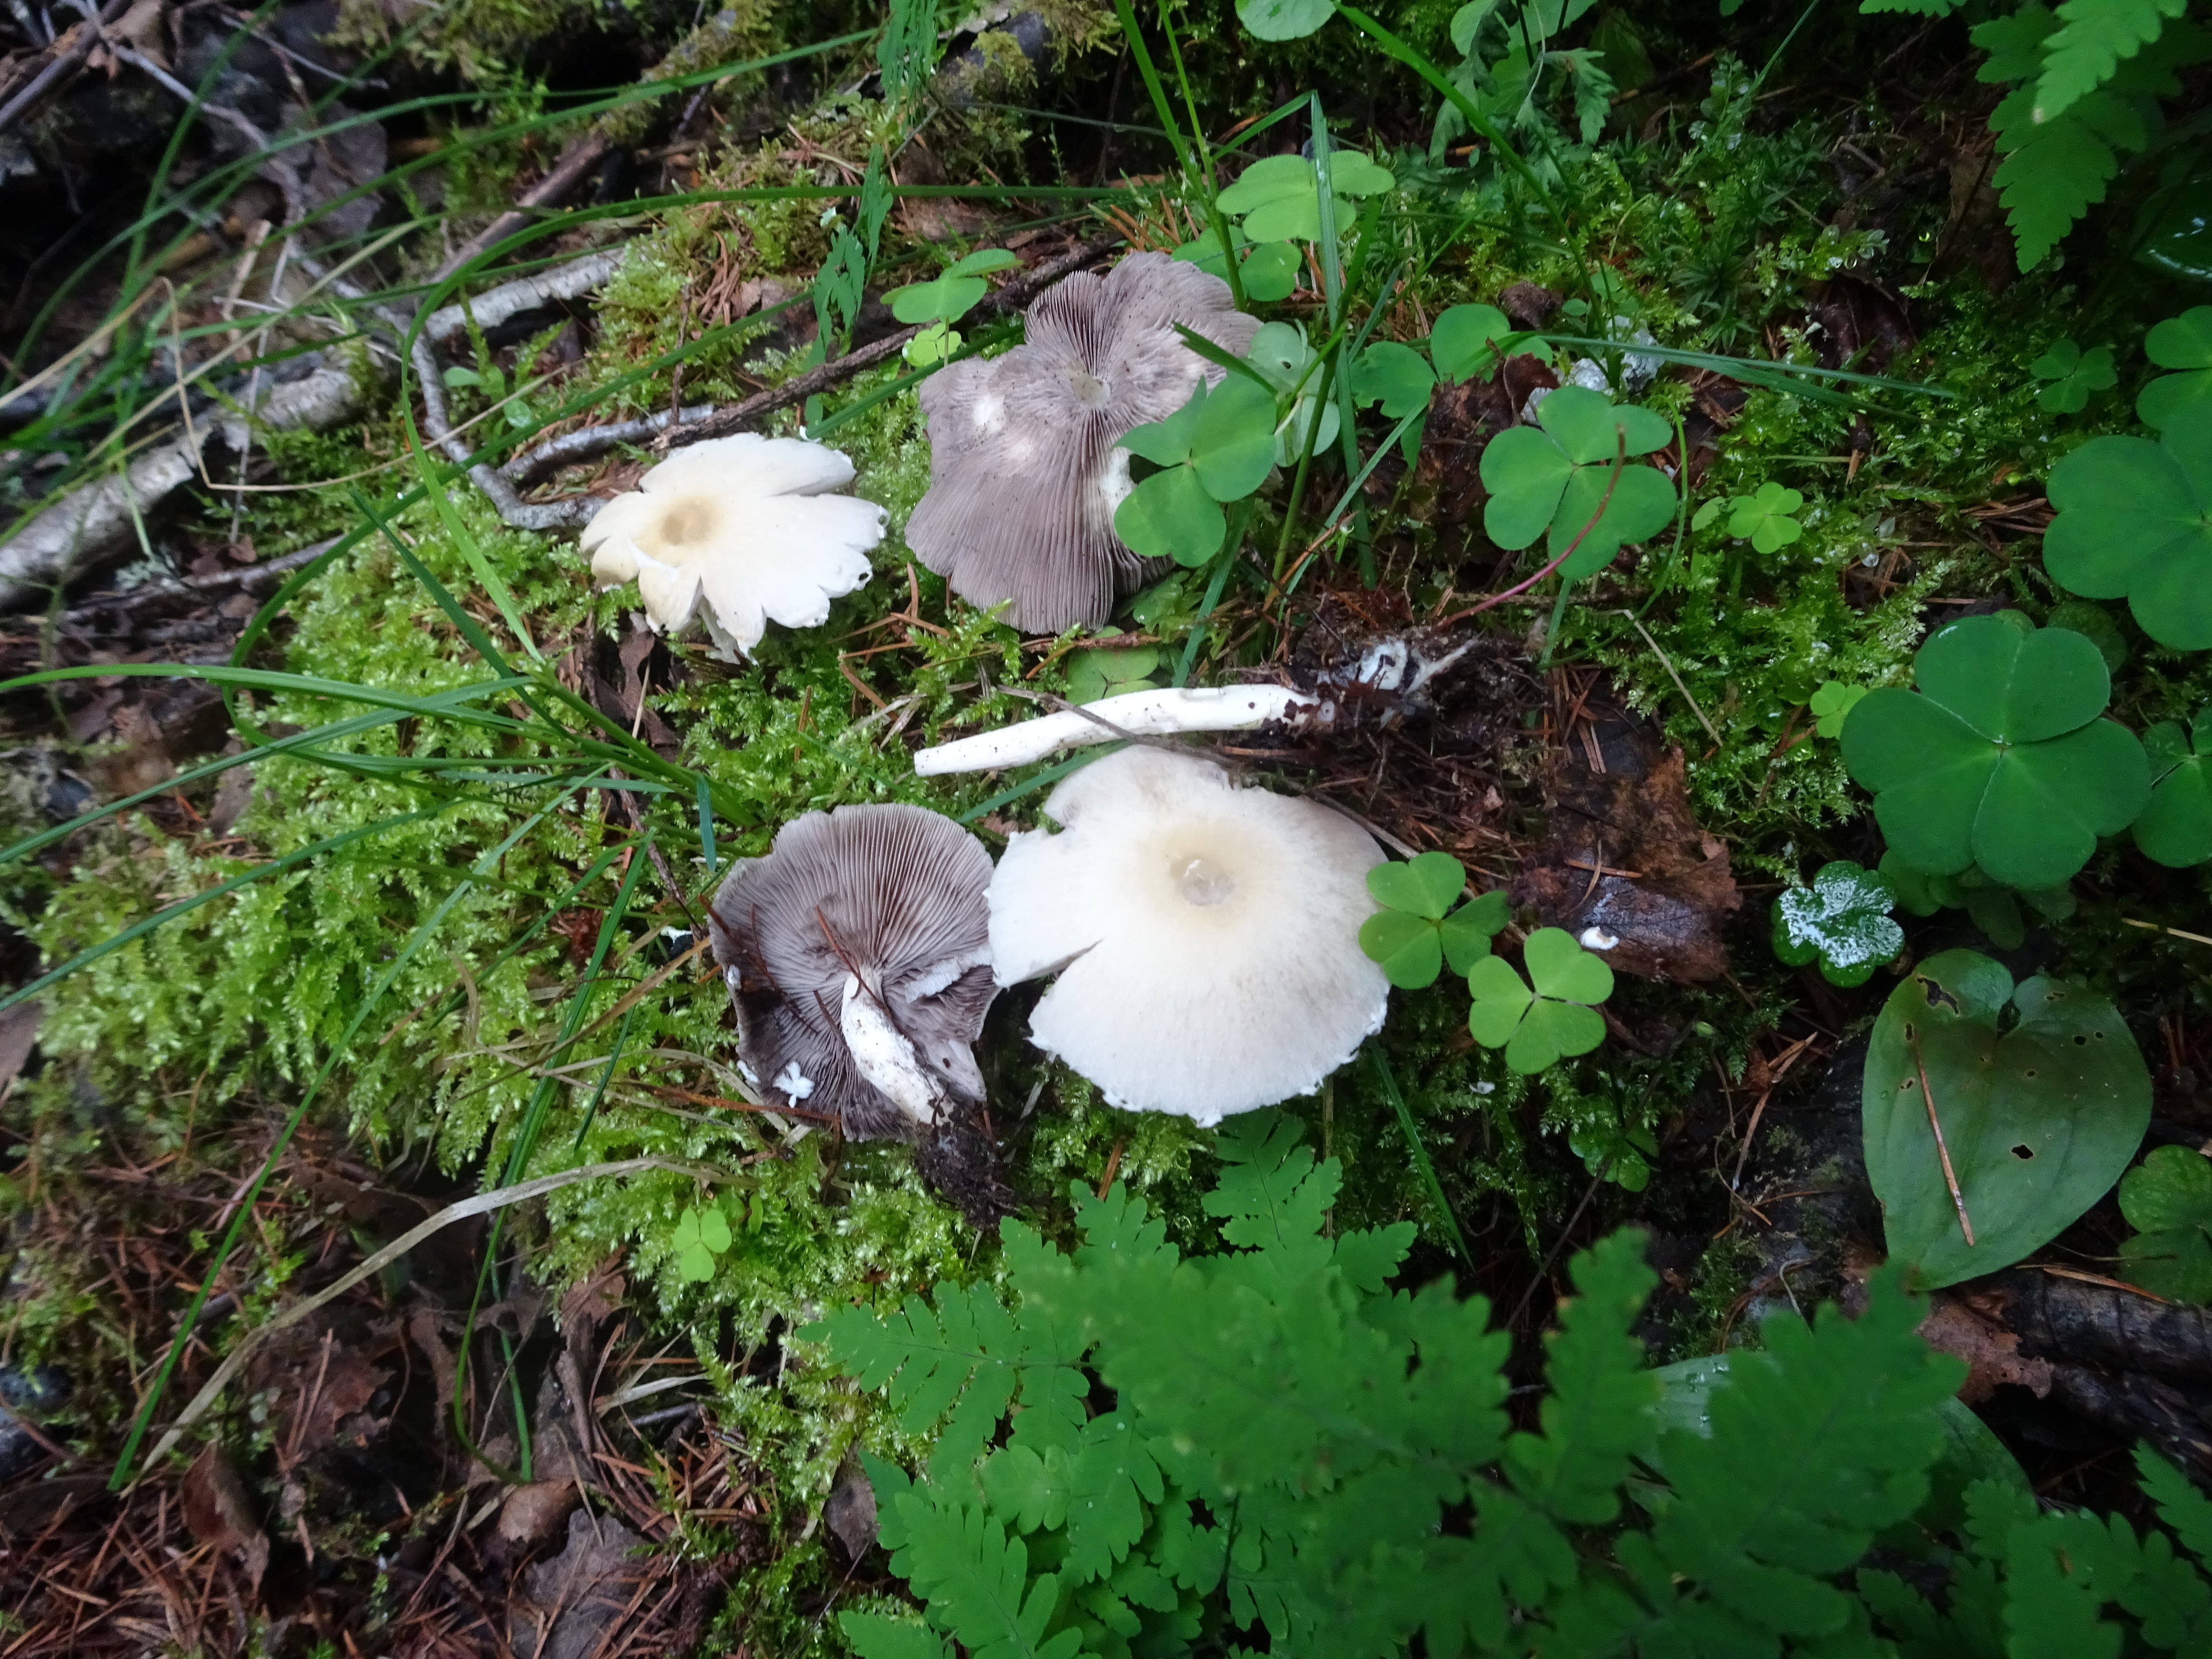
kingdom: Fungi
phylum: Basidiomycota
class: Agaricomycetes
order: Agaricales
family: Psathyrellaceae
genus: Candolleomyces
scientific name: Candolleomyces candolleanus
